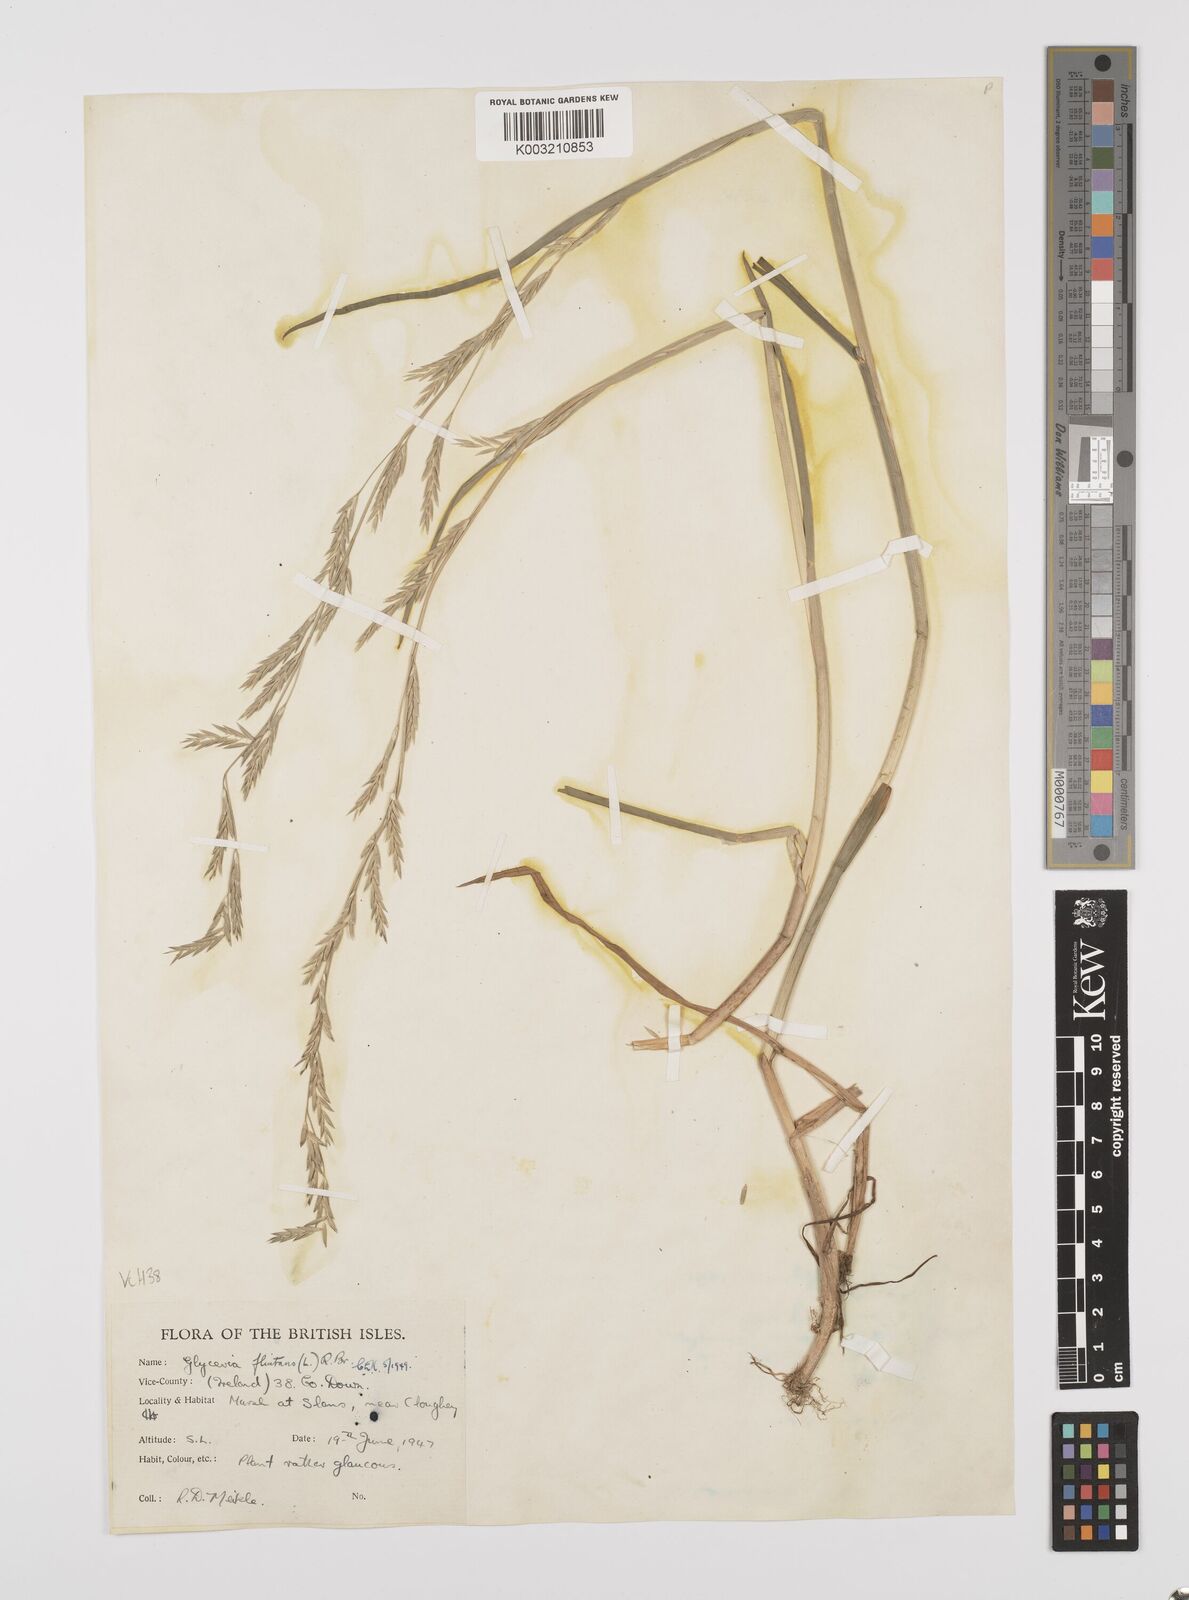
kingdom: Plantae
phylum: Tracheophyta
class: Liliopsida
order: Poales
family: Poaceae
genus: Glyceria
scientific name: Glyceria fluitans
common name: Floating sweet-grass
